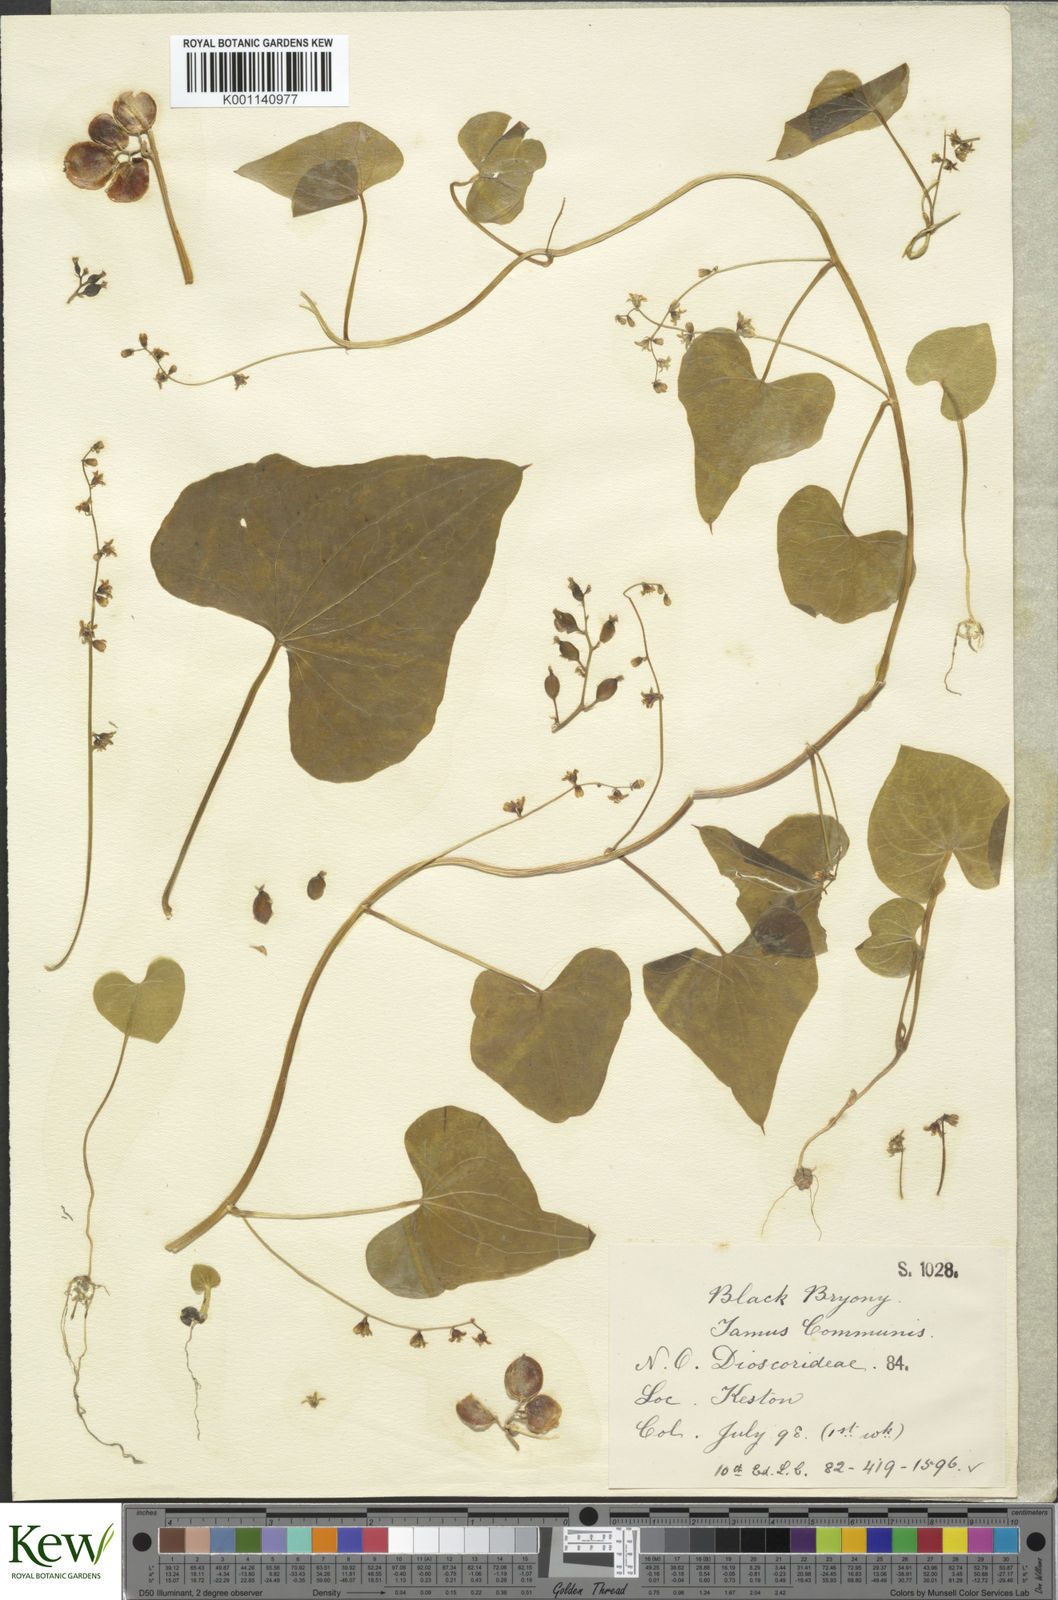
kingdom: Plantae
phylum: Tracheophyta
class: Liliopsida
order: Dioscoreales
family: Dioscoreaceae
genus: Dioscorea
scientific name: Dioscorea communis
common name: Black-bindweed
